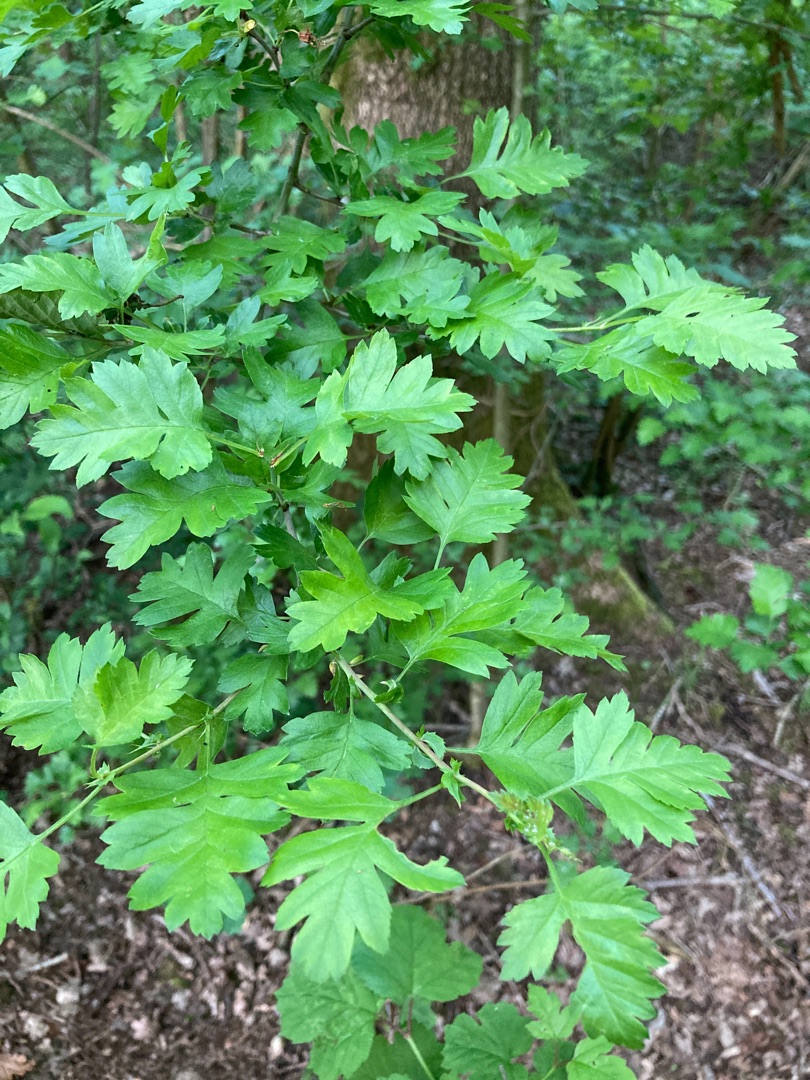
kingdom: Plantae
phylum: Tracheophyta
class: Magnoliopsida
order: Rosales
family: Rosaceae
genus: Crataegus
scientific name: Crataegus monogyna
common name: Engriflet hvidtjørn
